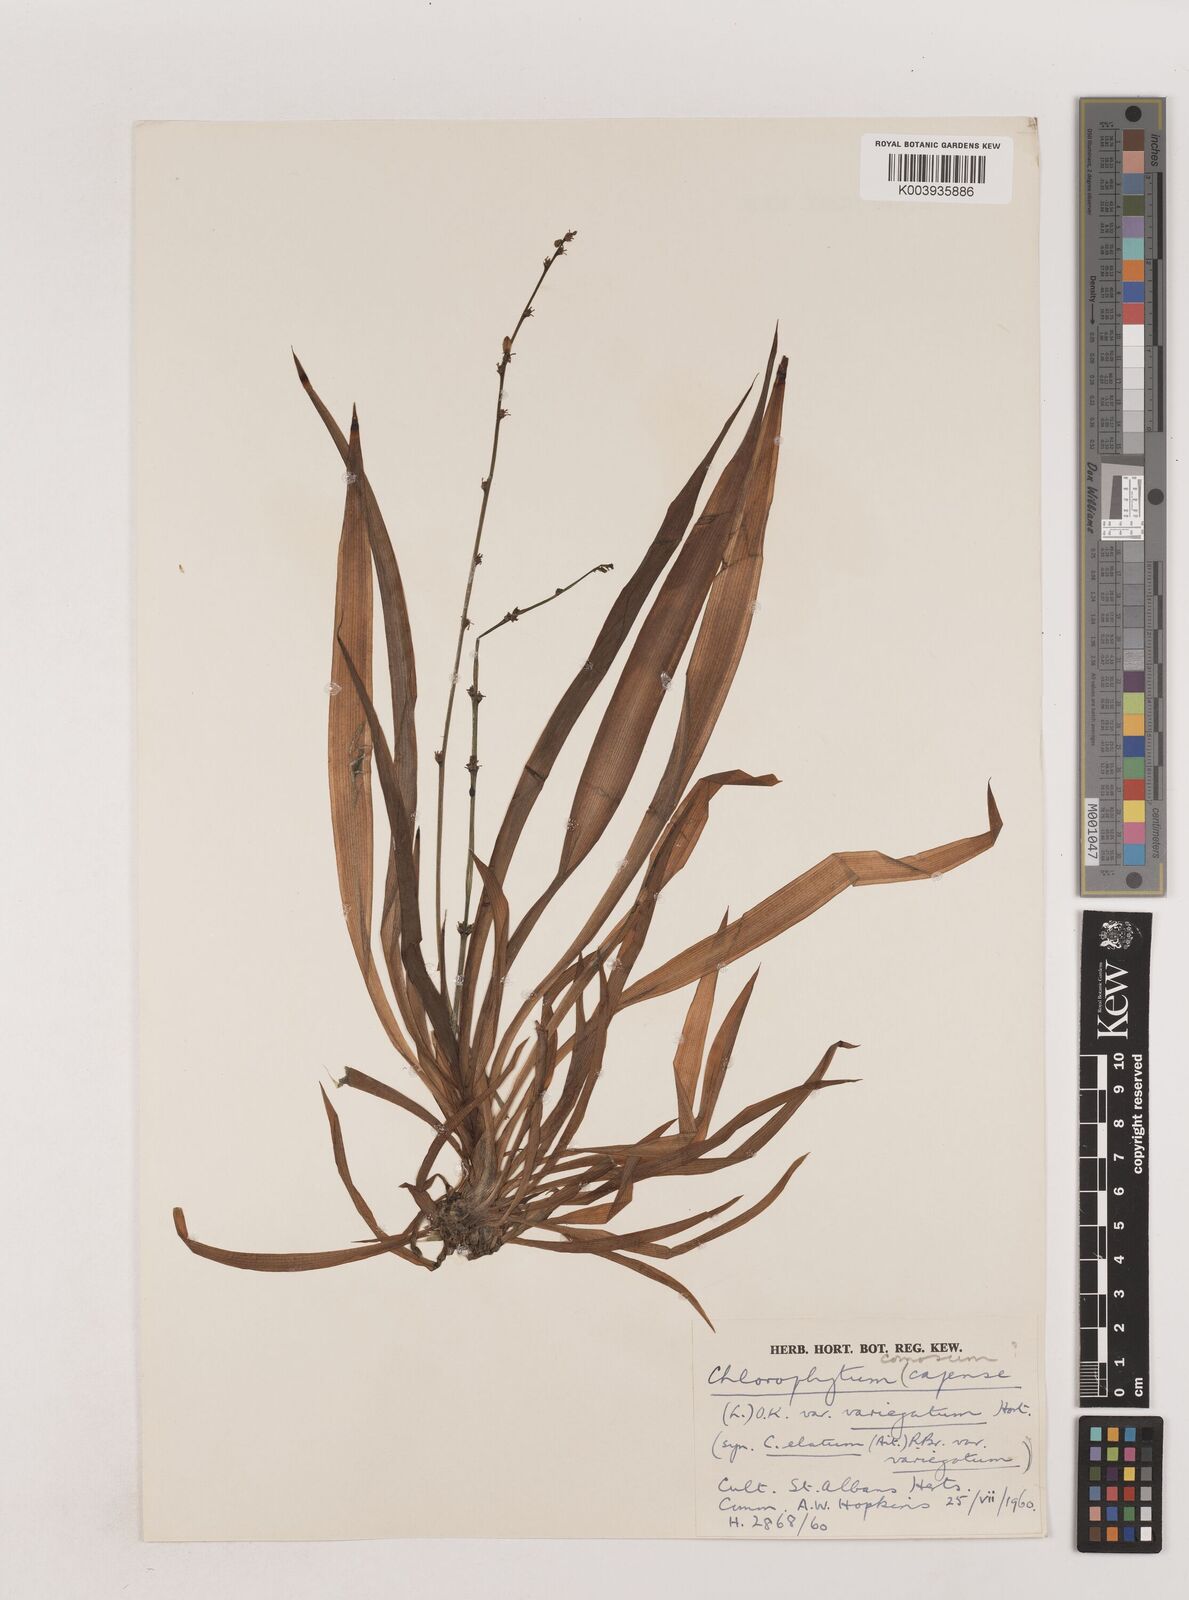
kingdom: Plantae
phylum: Tracheophyta
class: Liliopsida
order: Asparagales
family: Asparagaceae
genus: Chlorophytum
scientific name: Chlorophytum comosum
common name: Spider plant
